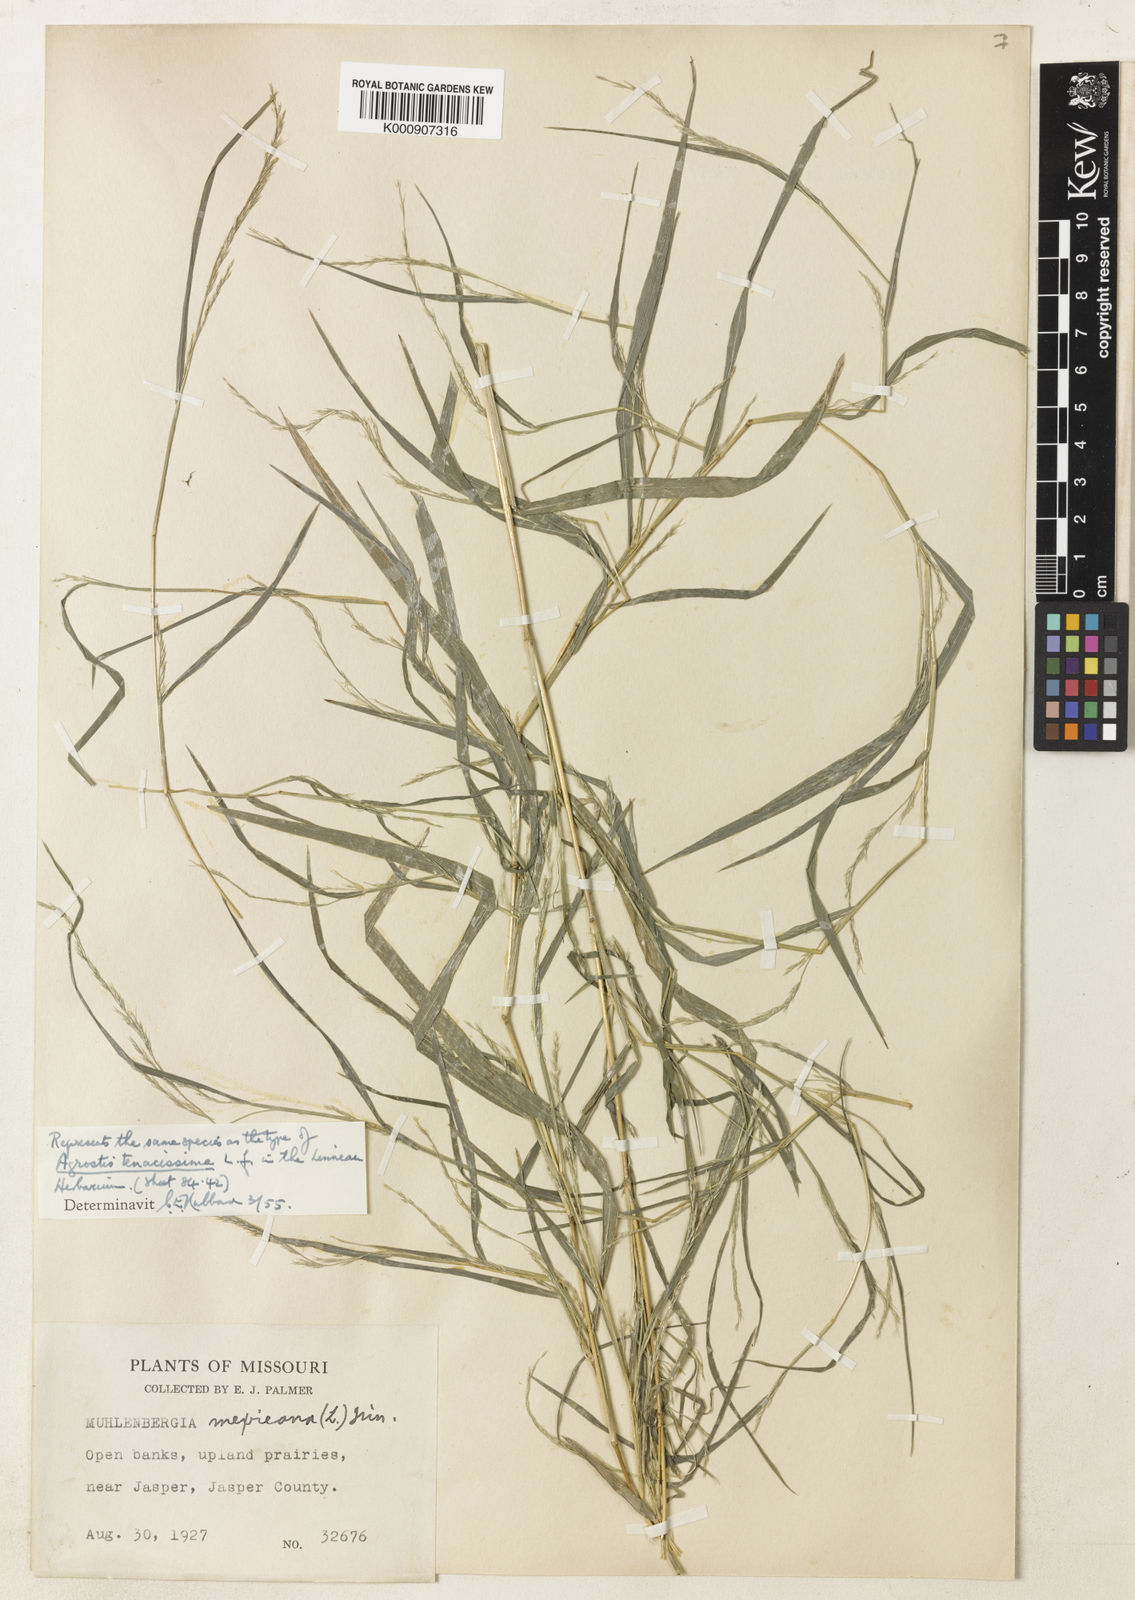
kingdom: Plantae
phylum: Tracheophyta
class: Liliopsida
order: Poales
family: Poaceae
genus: Muhlenbergia
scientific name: Muhlenbergia mexicana
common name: Mexican muhly
